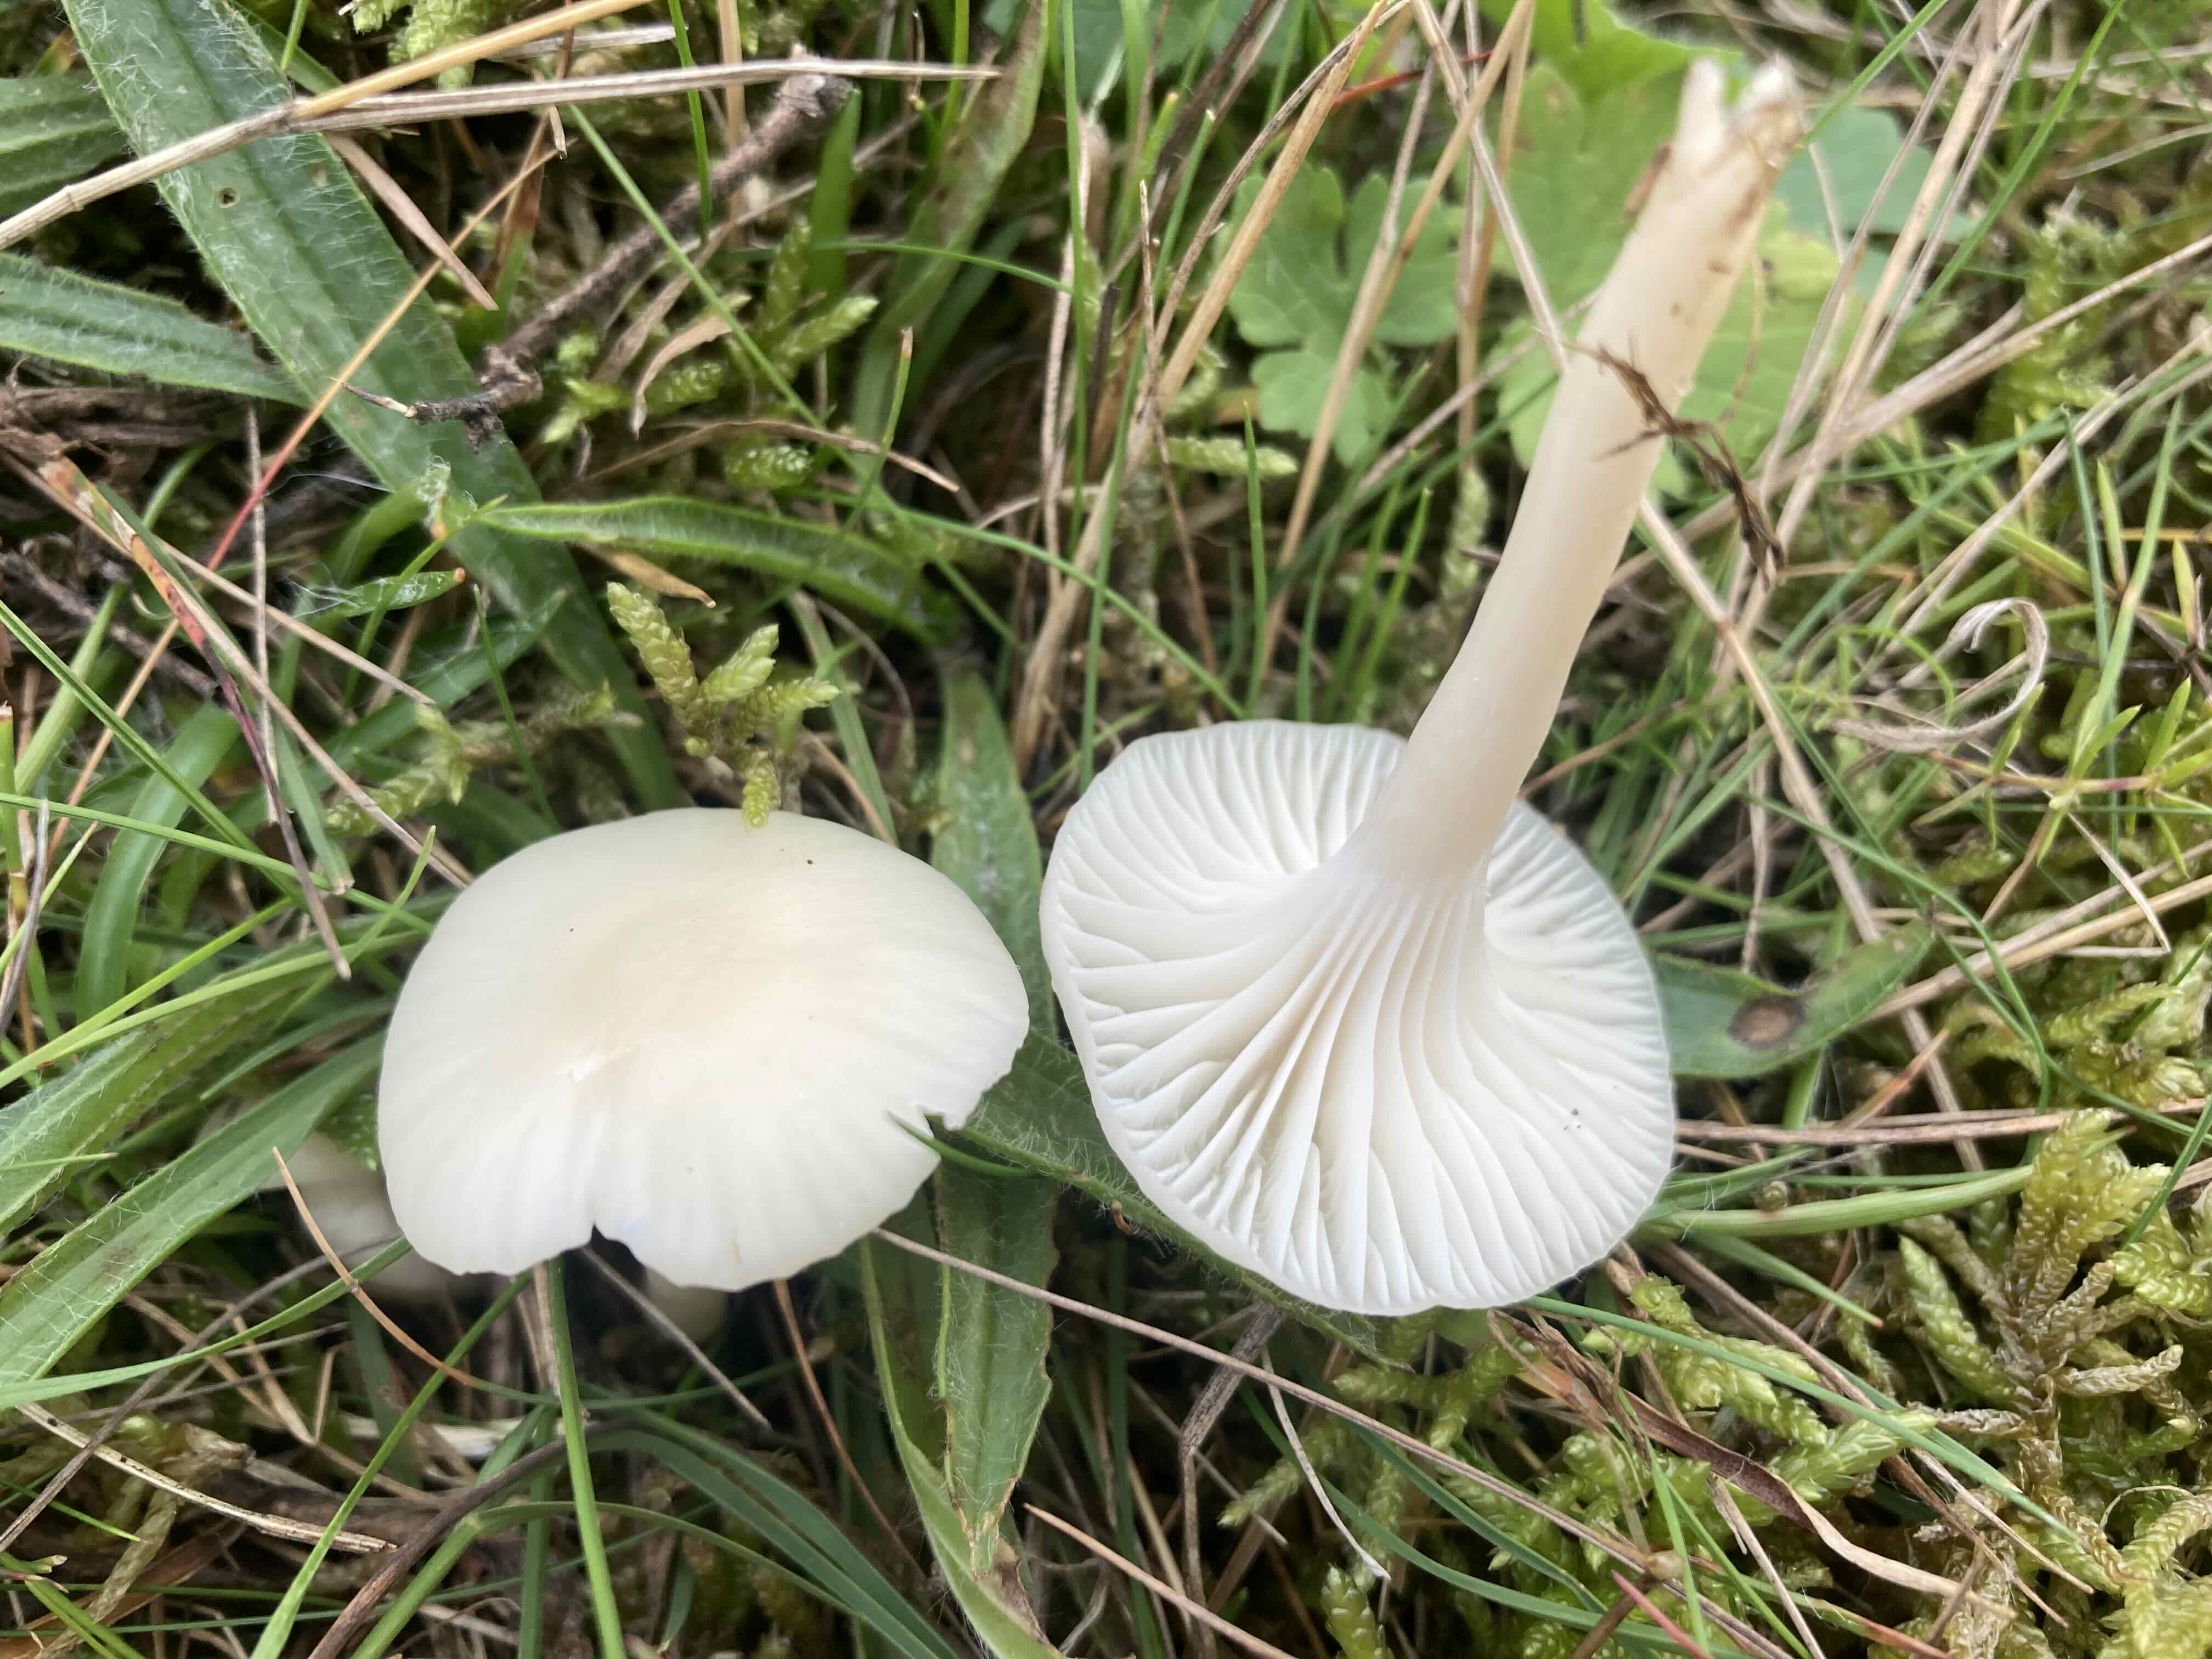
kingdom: Fungi
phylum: Basidiomycota
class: Agaricomycetes
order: Agaricales
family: Hygrophoraceae
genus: Cuphophyllus
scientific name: Cuphophyllus virgineus
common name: snehvid vokshat
